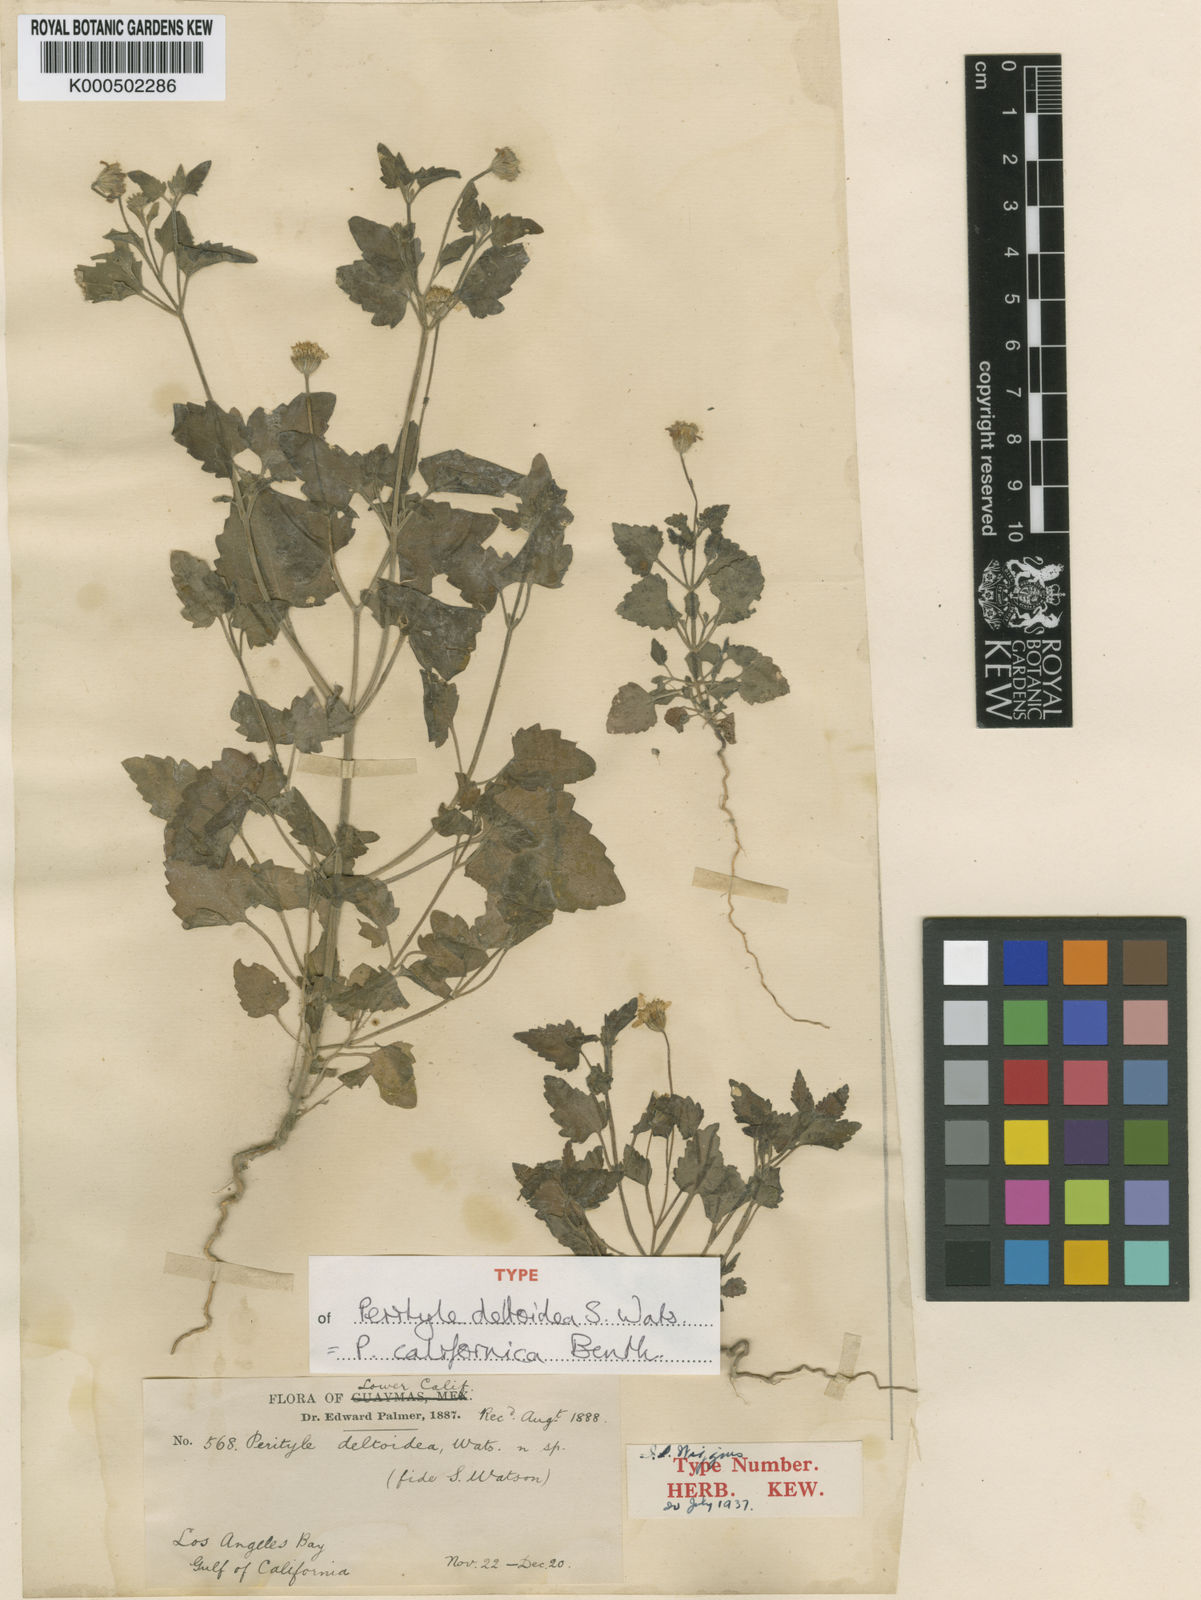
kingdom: Plantae
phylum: Tracheophyta
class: Magnoliopsida
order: Asterales
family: Asteraceae
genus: Perityle
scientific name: Perityle californica
